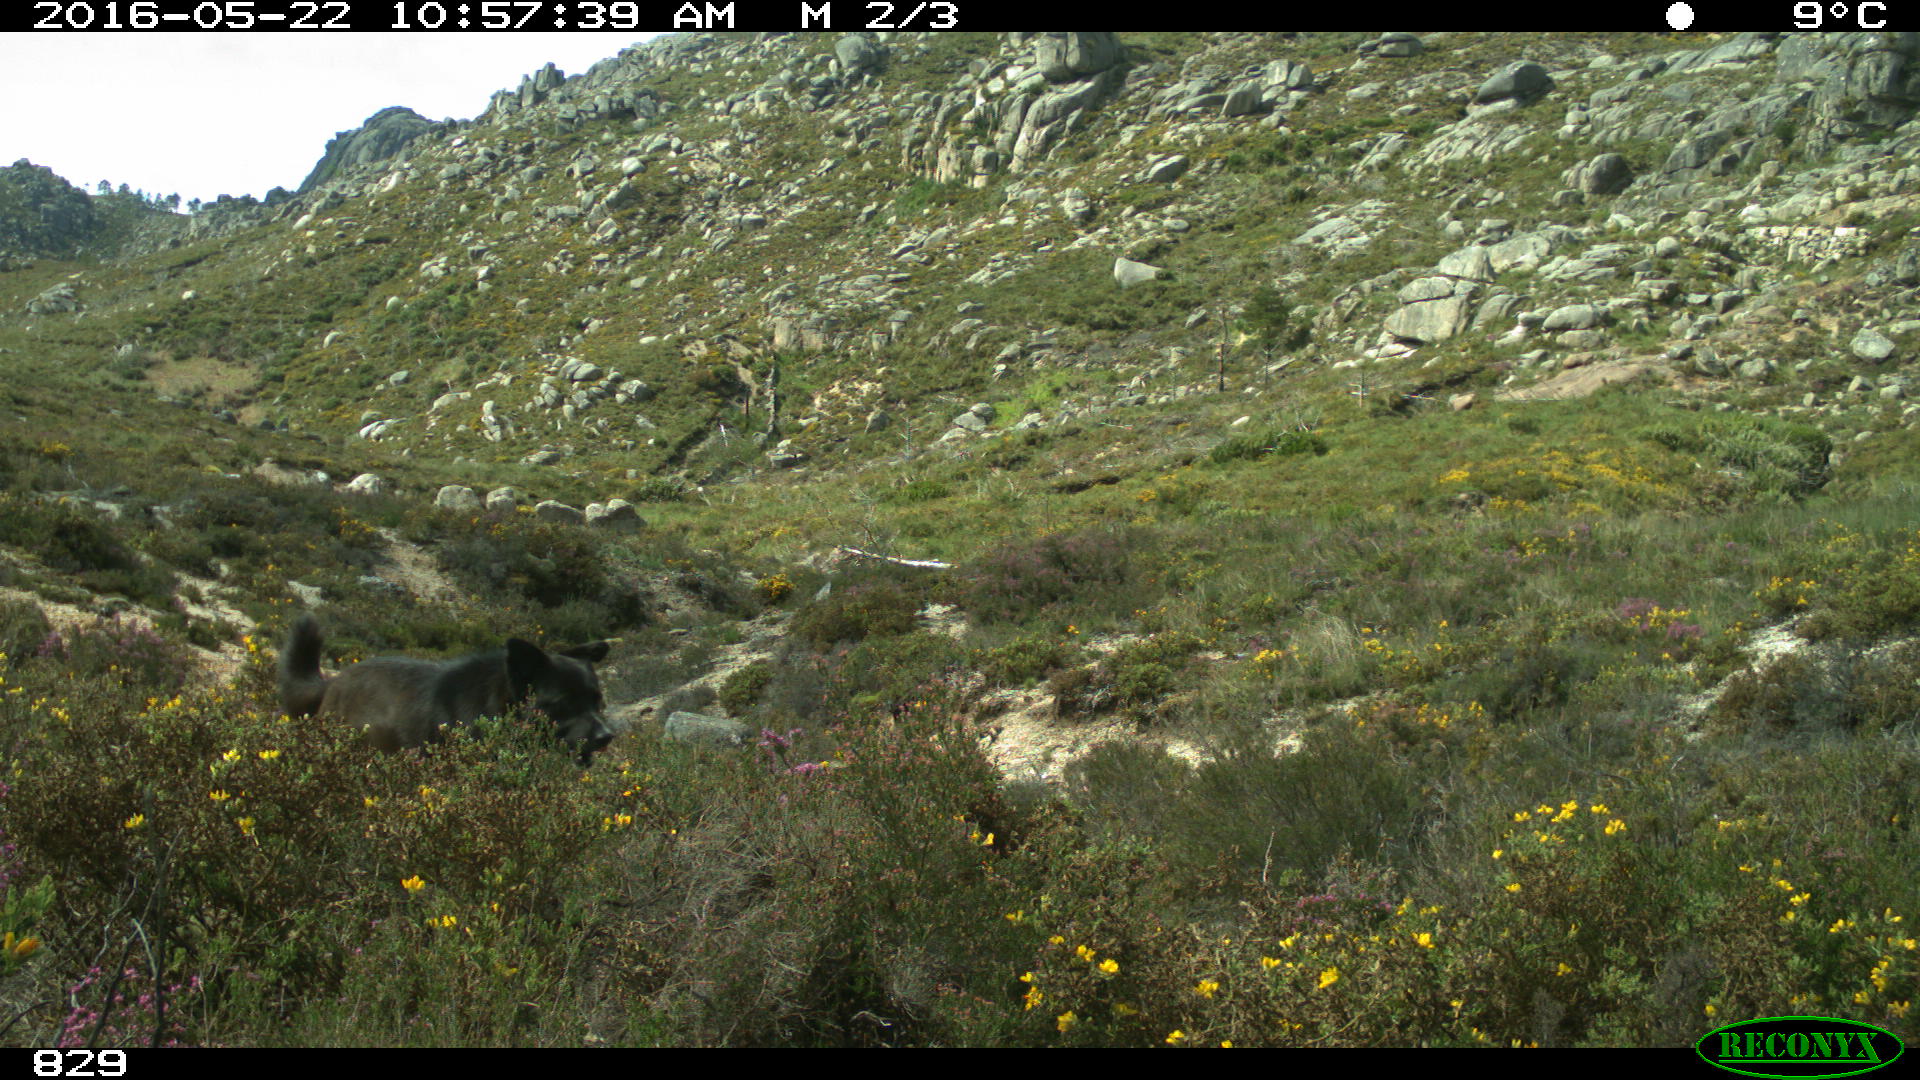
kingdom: Animalia
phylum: Chordata
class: Mammalia
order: Carnivora
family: Canidae
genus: Canis
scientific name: Canis lupus
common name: Gray wolf
